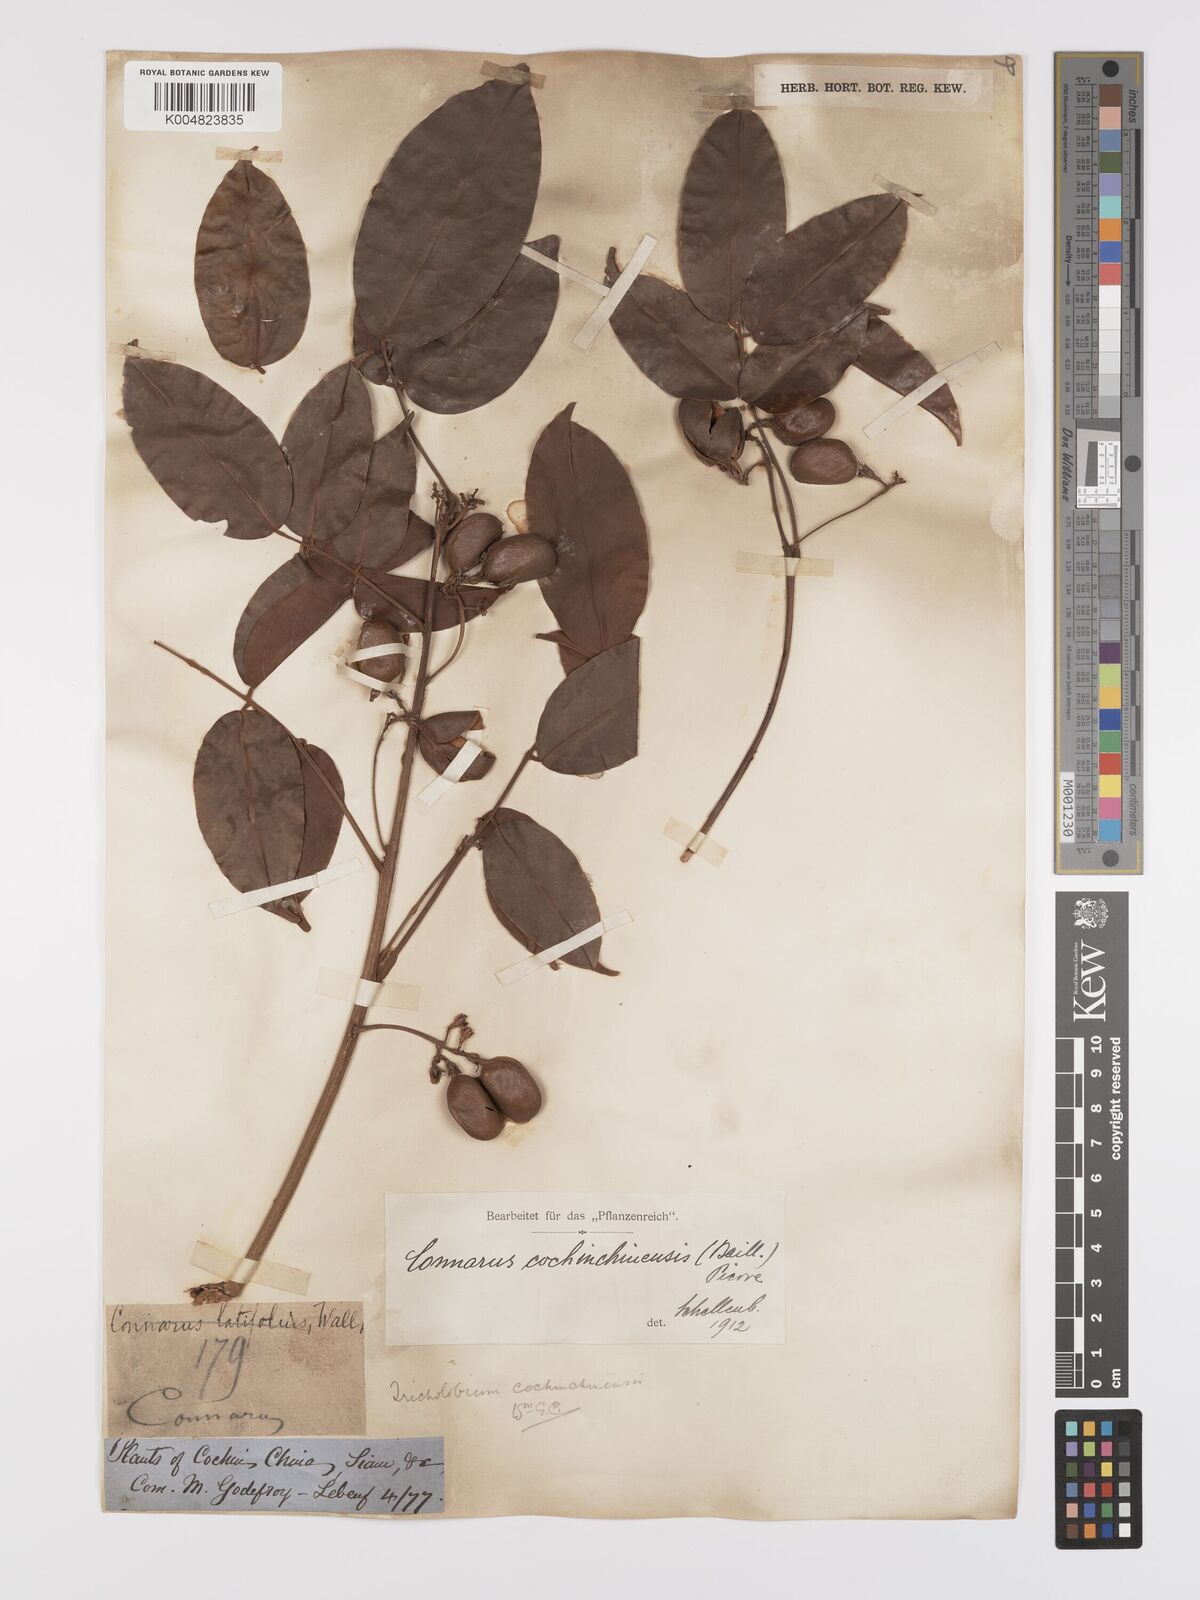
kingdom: Plantae
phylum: Tracheophyta
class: Magnoliopsida
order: Oxalidales
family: Connaraceae
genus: Connarus
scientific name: Connarus cochinchinensis
